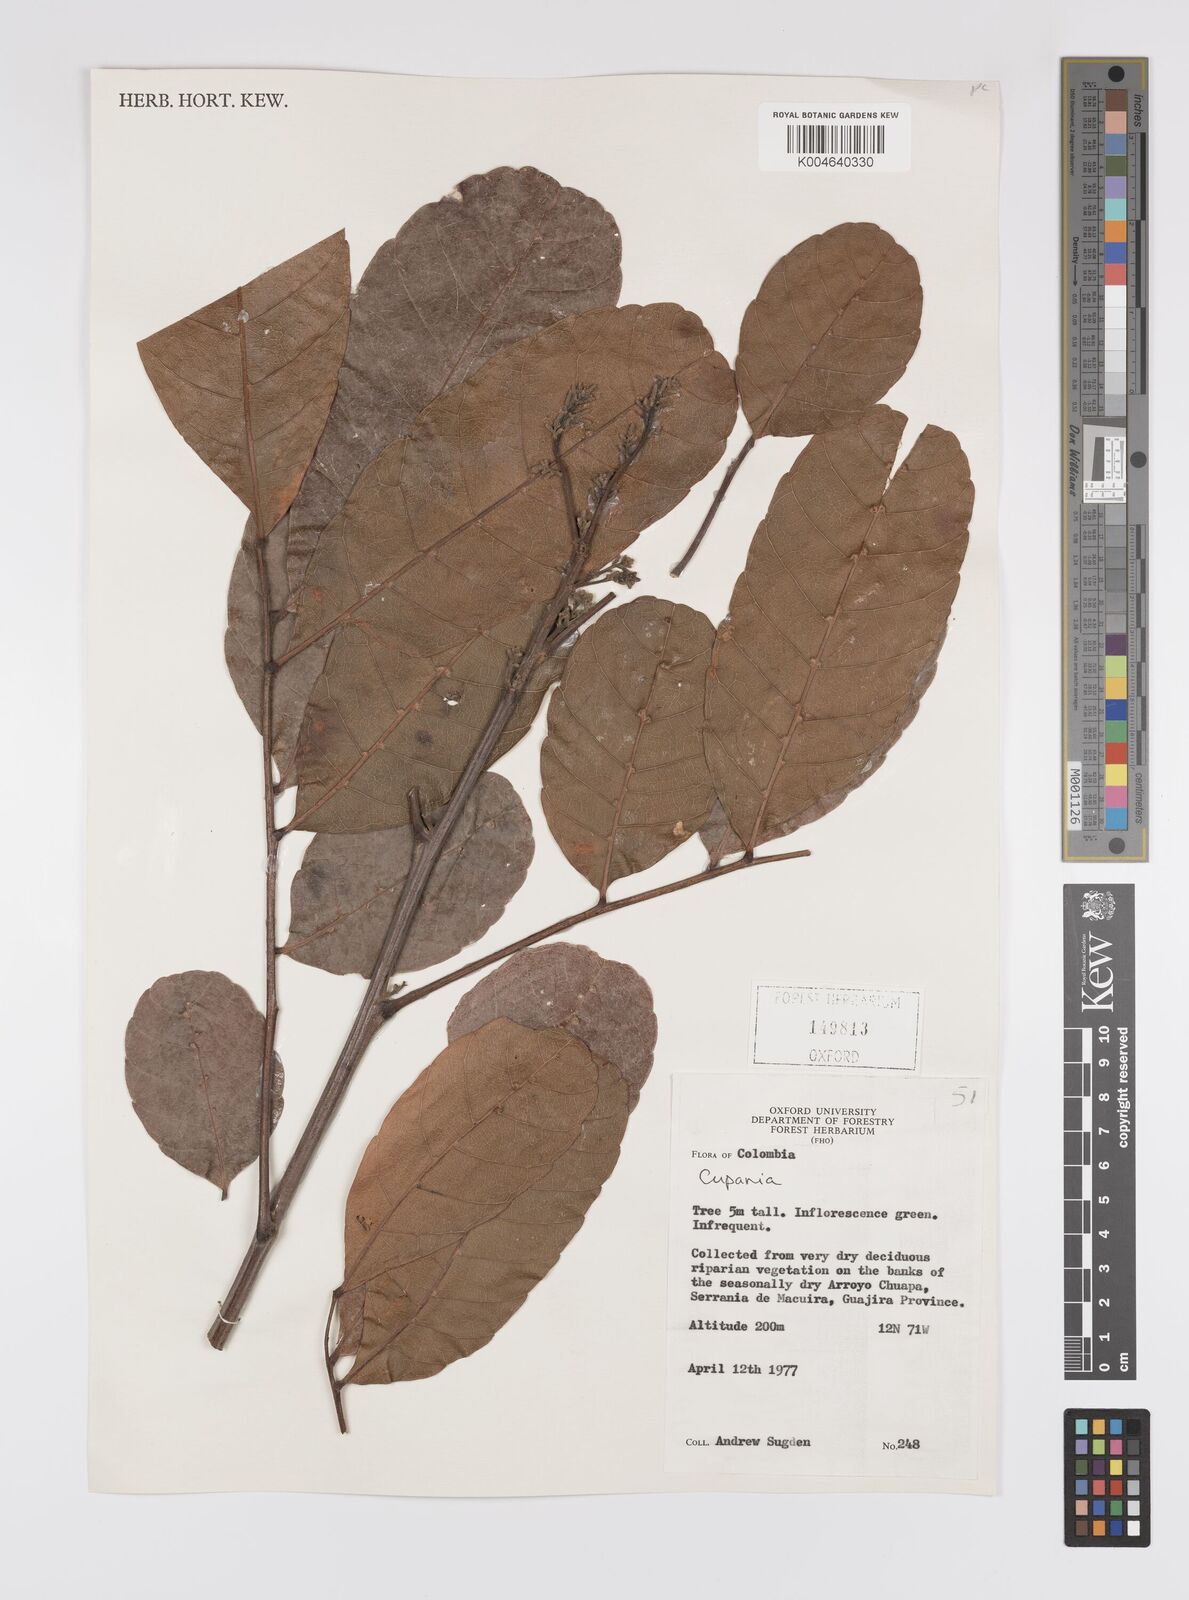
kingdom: Plantae
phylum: Tracheophyta
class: Magnoliopsida
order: Sapindales
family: Sapindaceae
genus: Cupania
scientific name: Cupania
